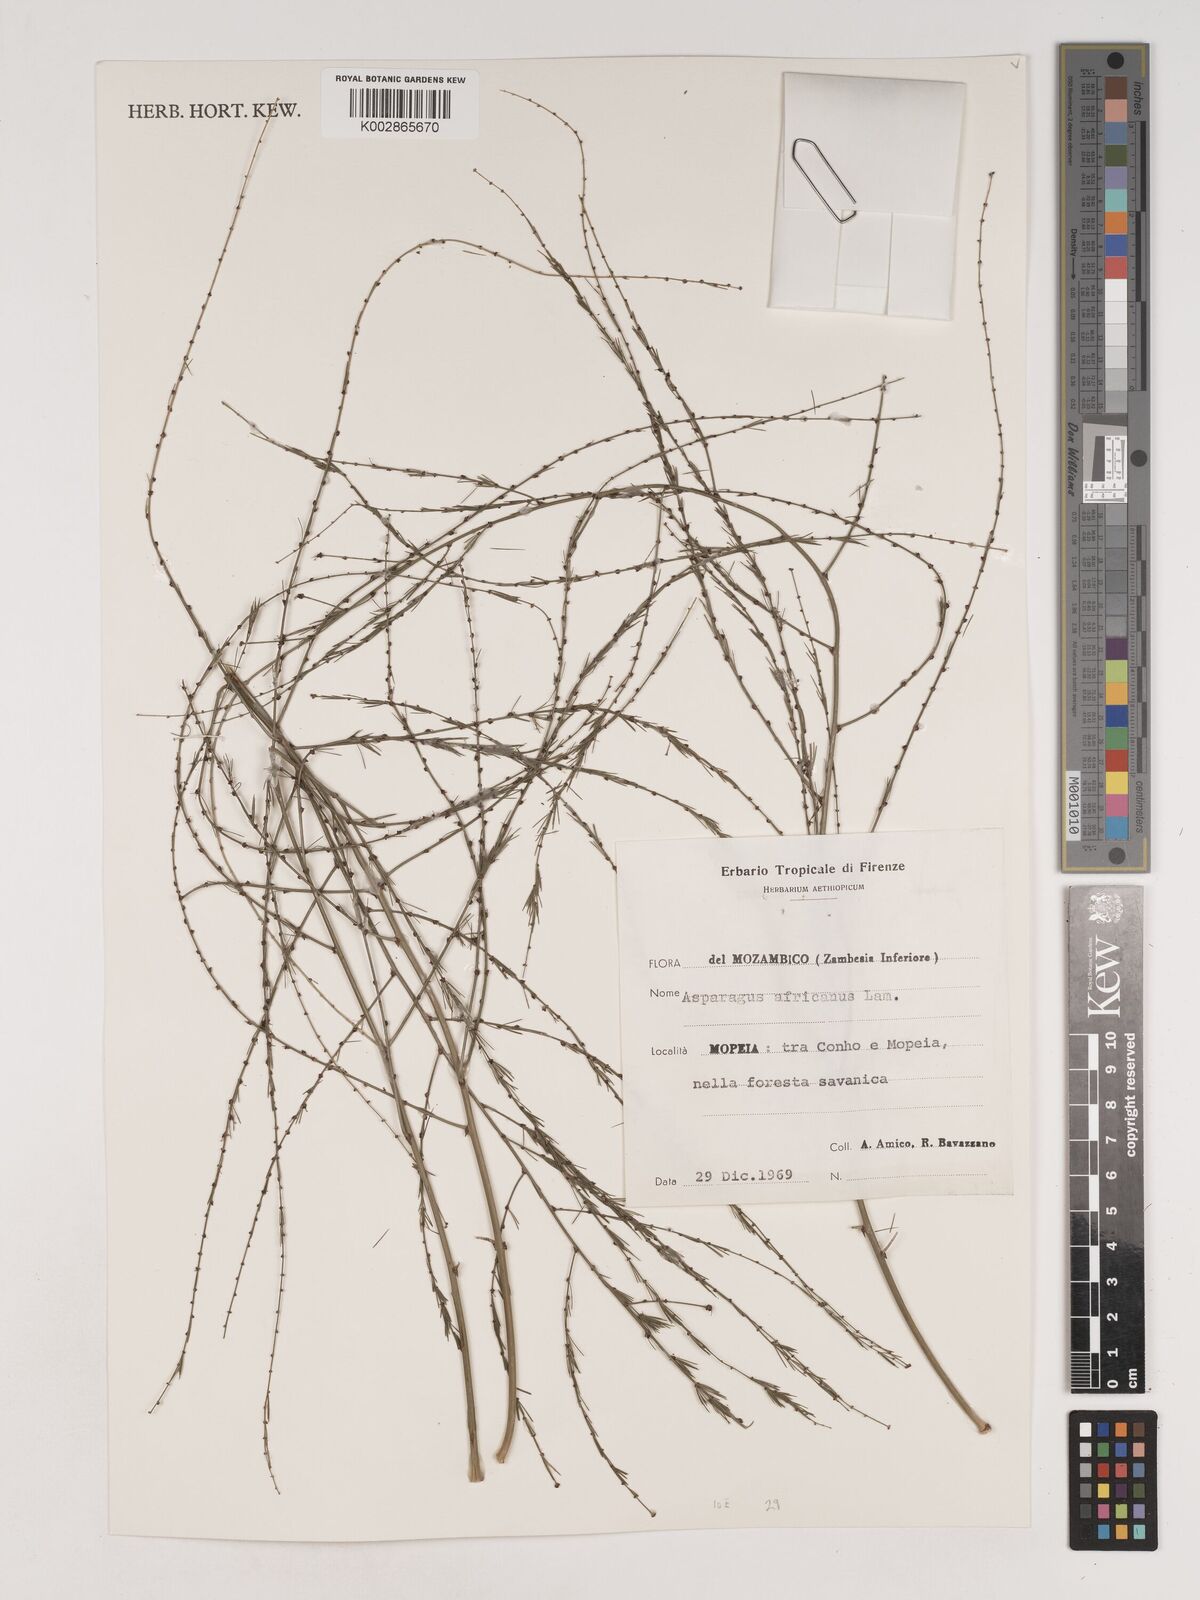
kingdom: Plantae
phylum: Tracheophyta
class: Liliopsida
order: Asparagales
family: Asparagaceae
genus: Asparagus
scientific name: Asparagus africanus
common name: Asparagus-fern
